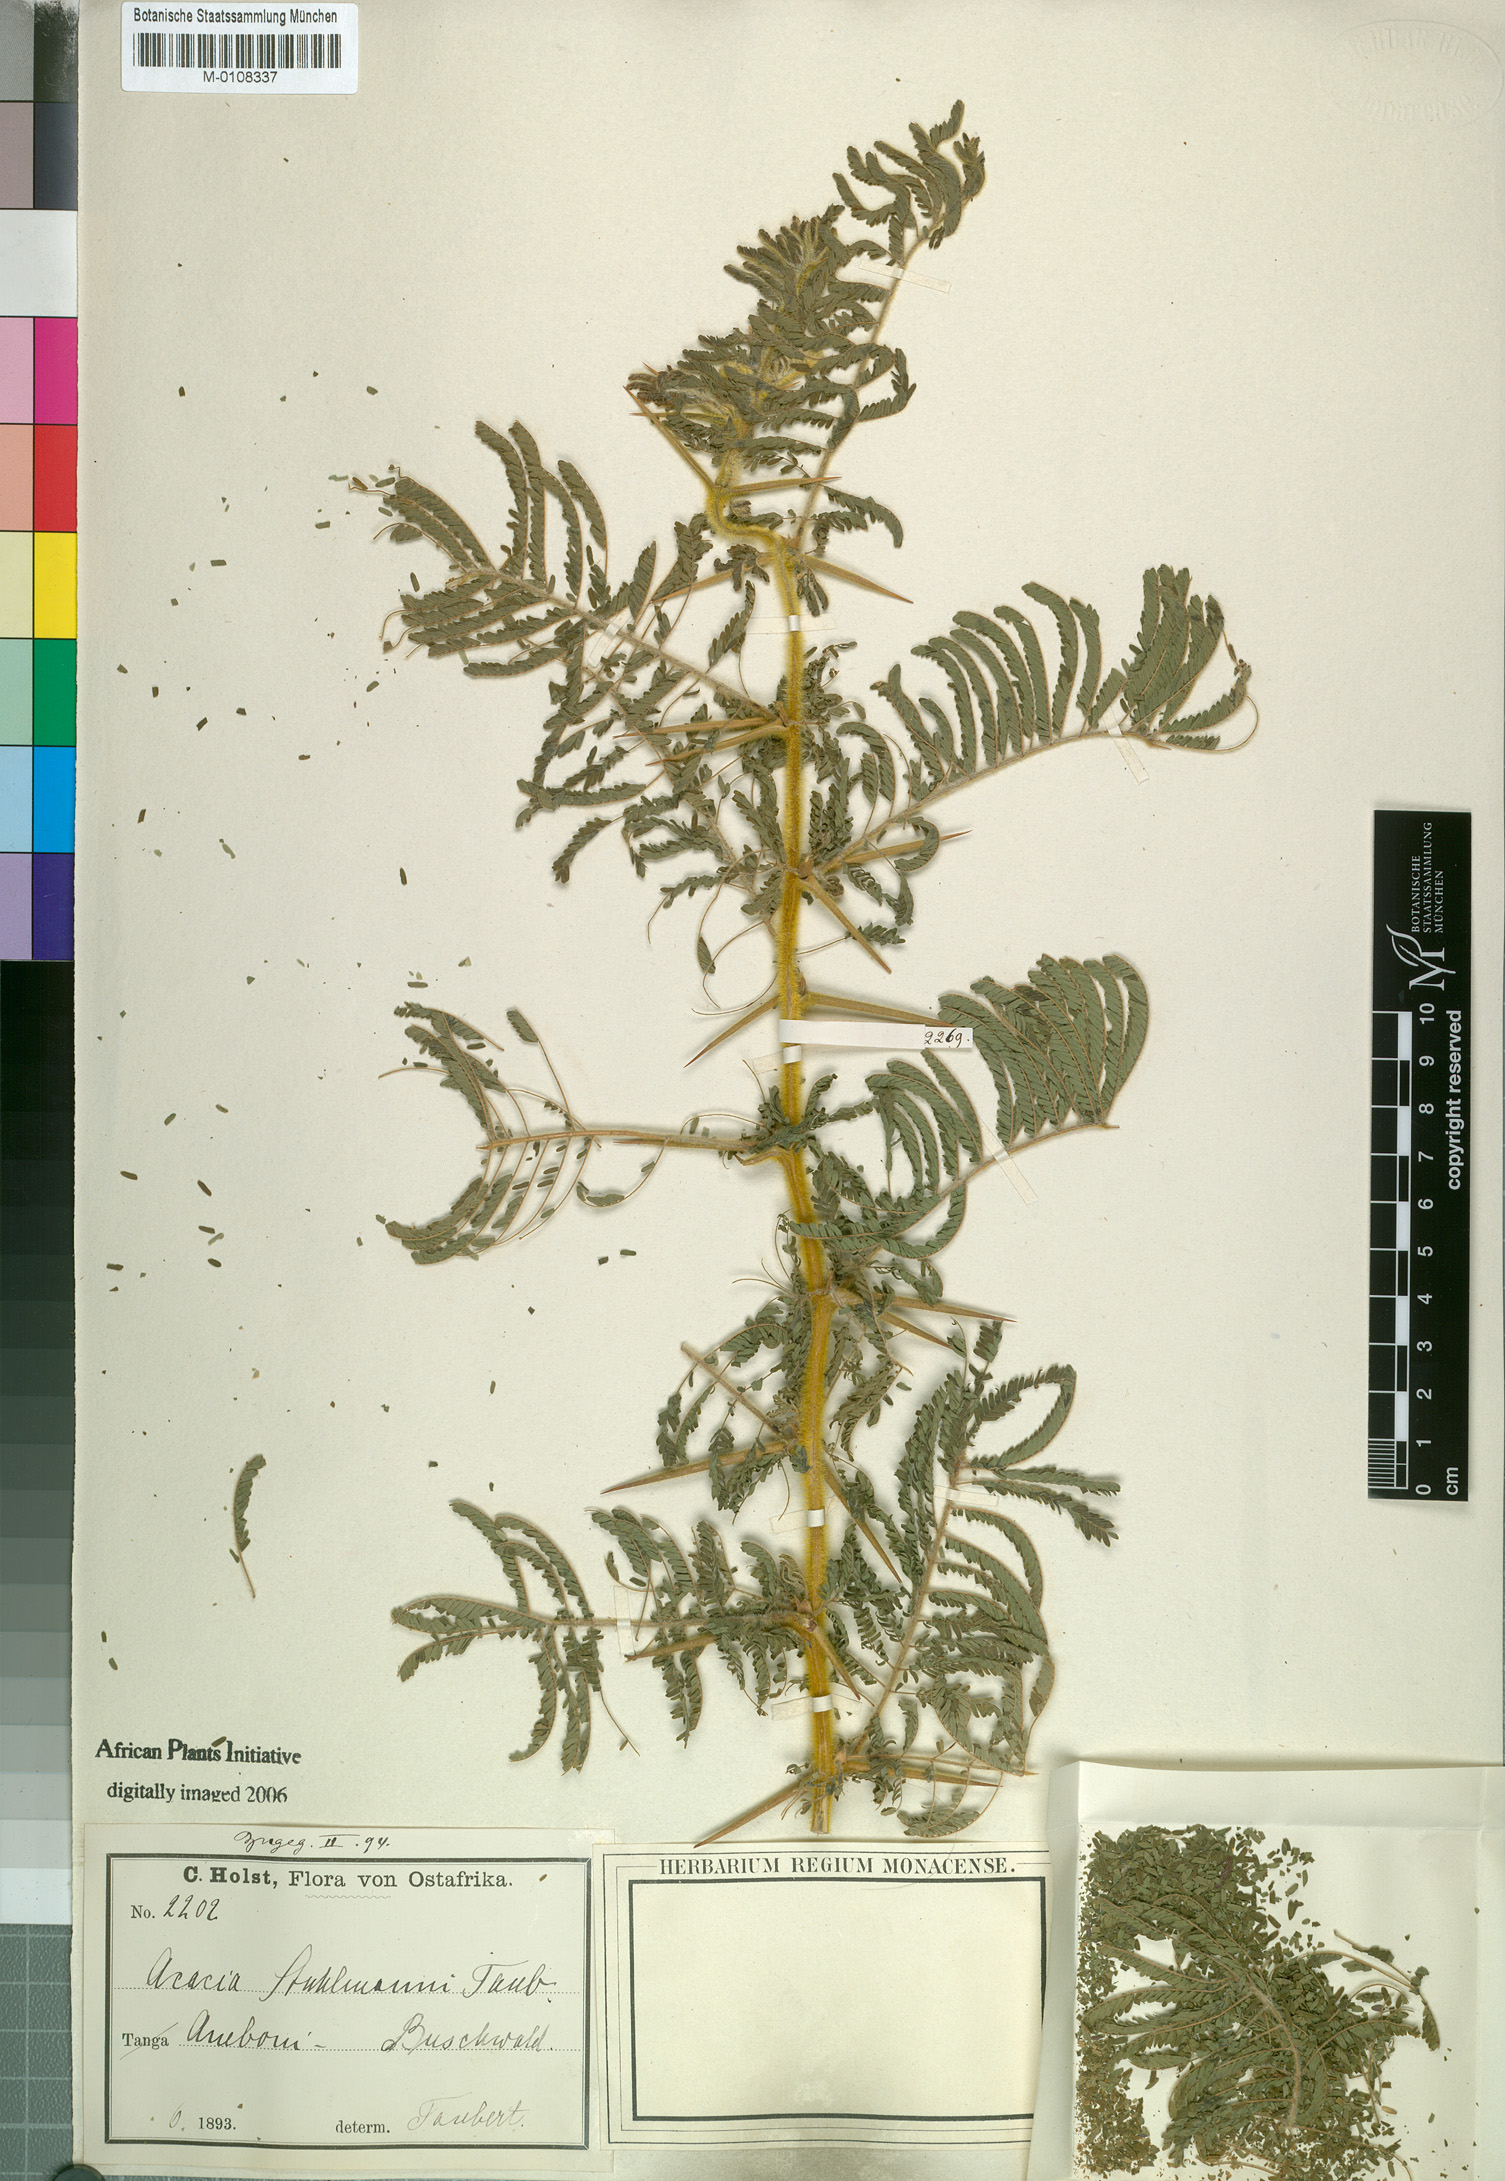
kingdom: Plantae
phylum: Tracheophyta
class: Magnoliopsida
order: Fabales
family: Fabaceae
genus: Vachellia
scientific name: Vachellia stuhlmannii
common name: Vlei thorn
